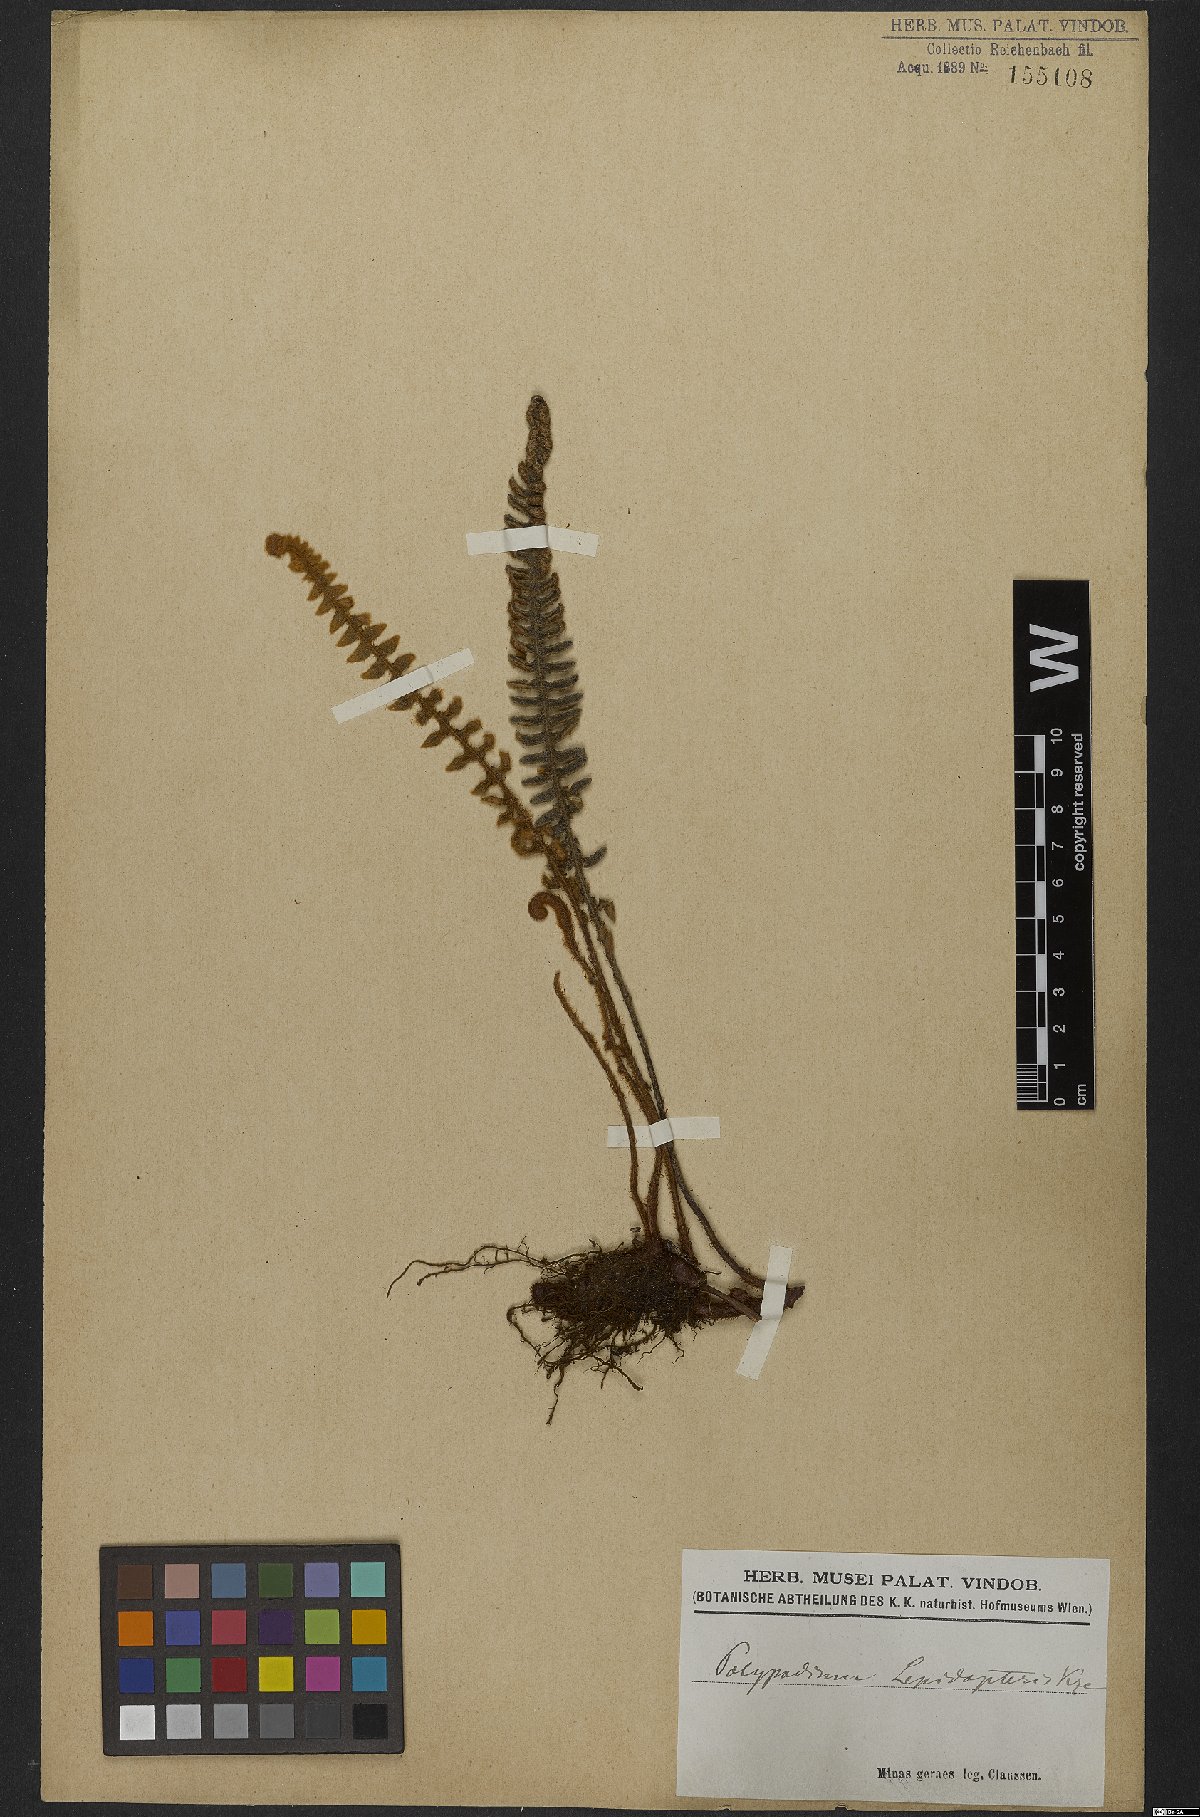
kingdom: Plantae
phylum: Tracheophyta
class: Polypodiopsida
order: Polypodiales
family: Polypodiaceae
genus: Pleopeltis
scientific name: Pleopeltis lepidopteris
